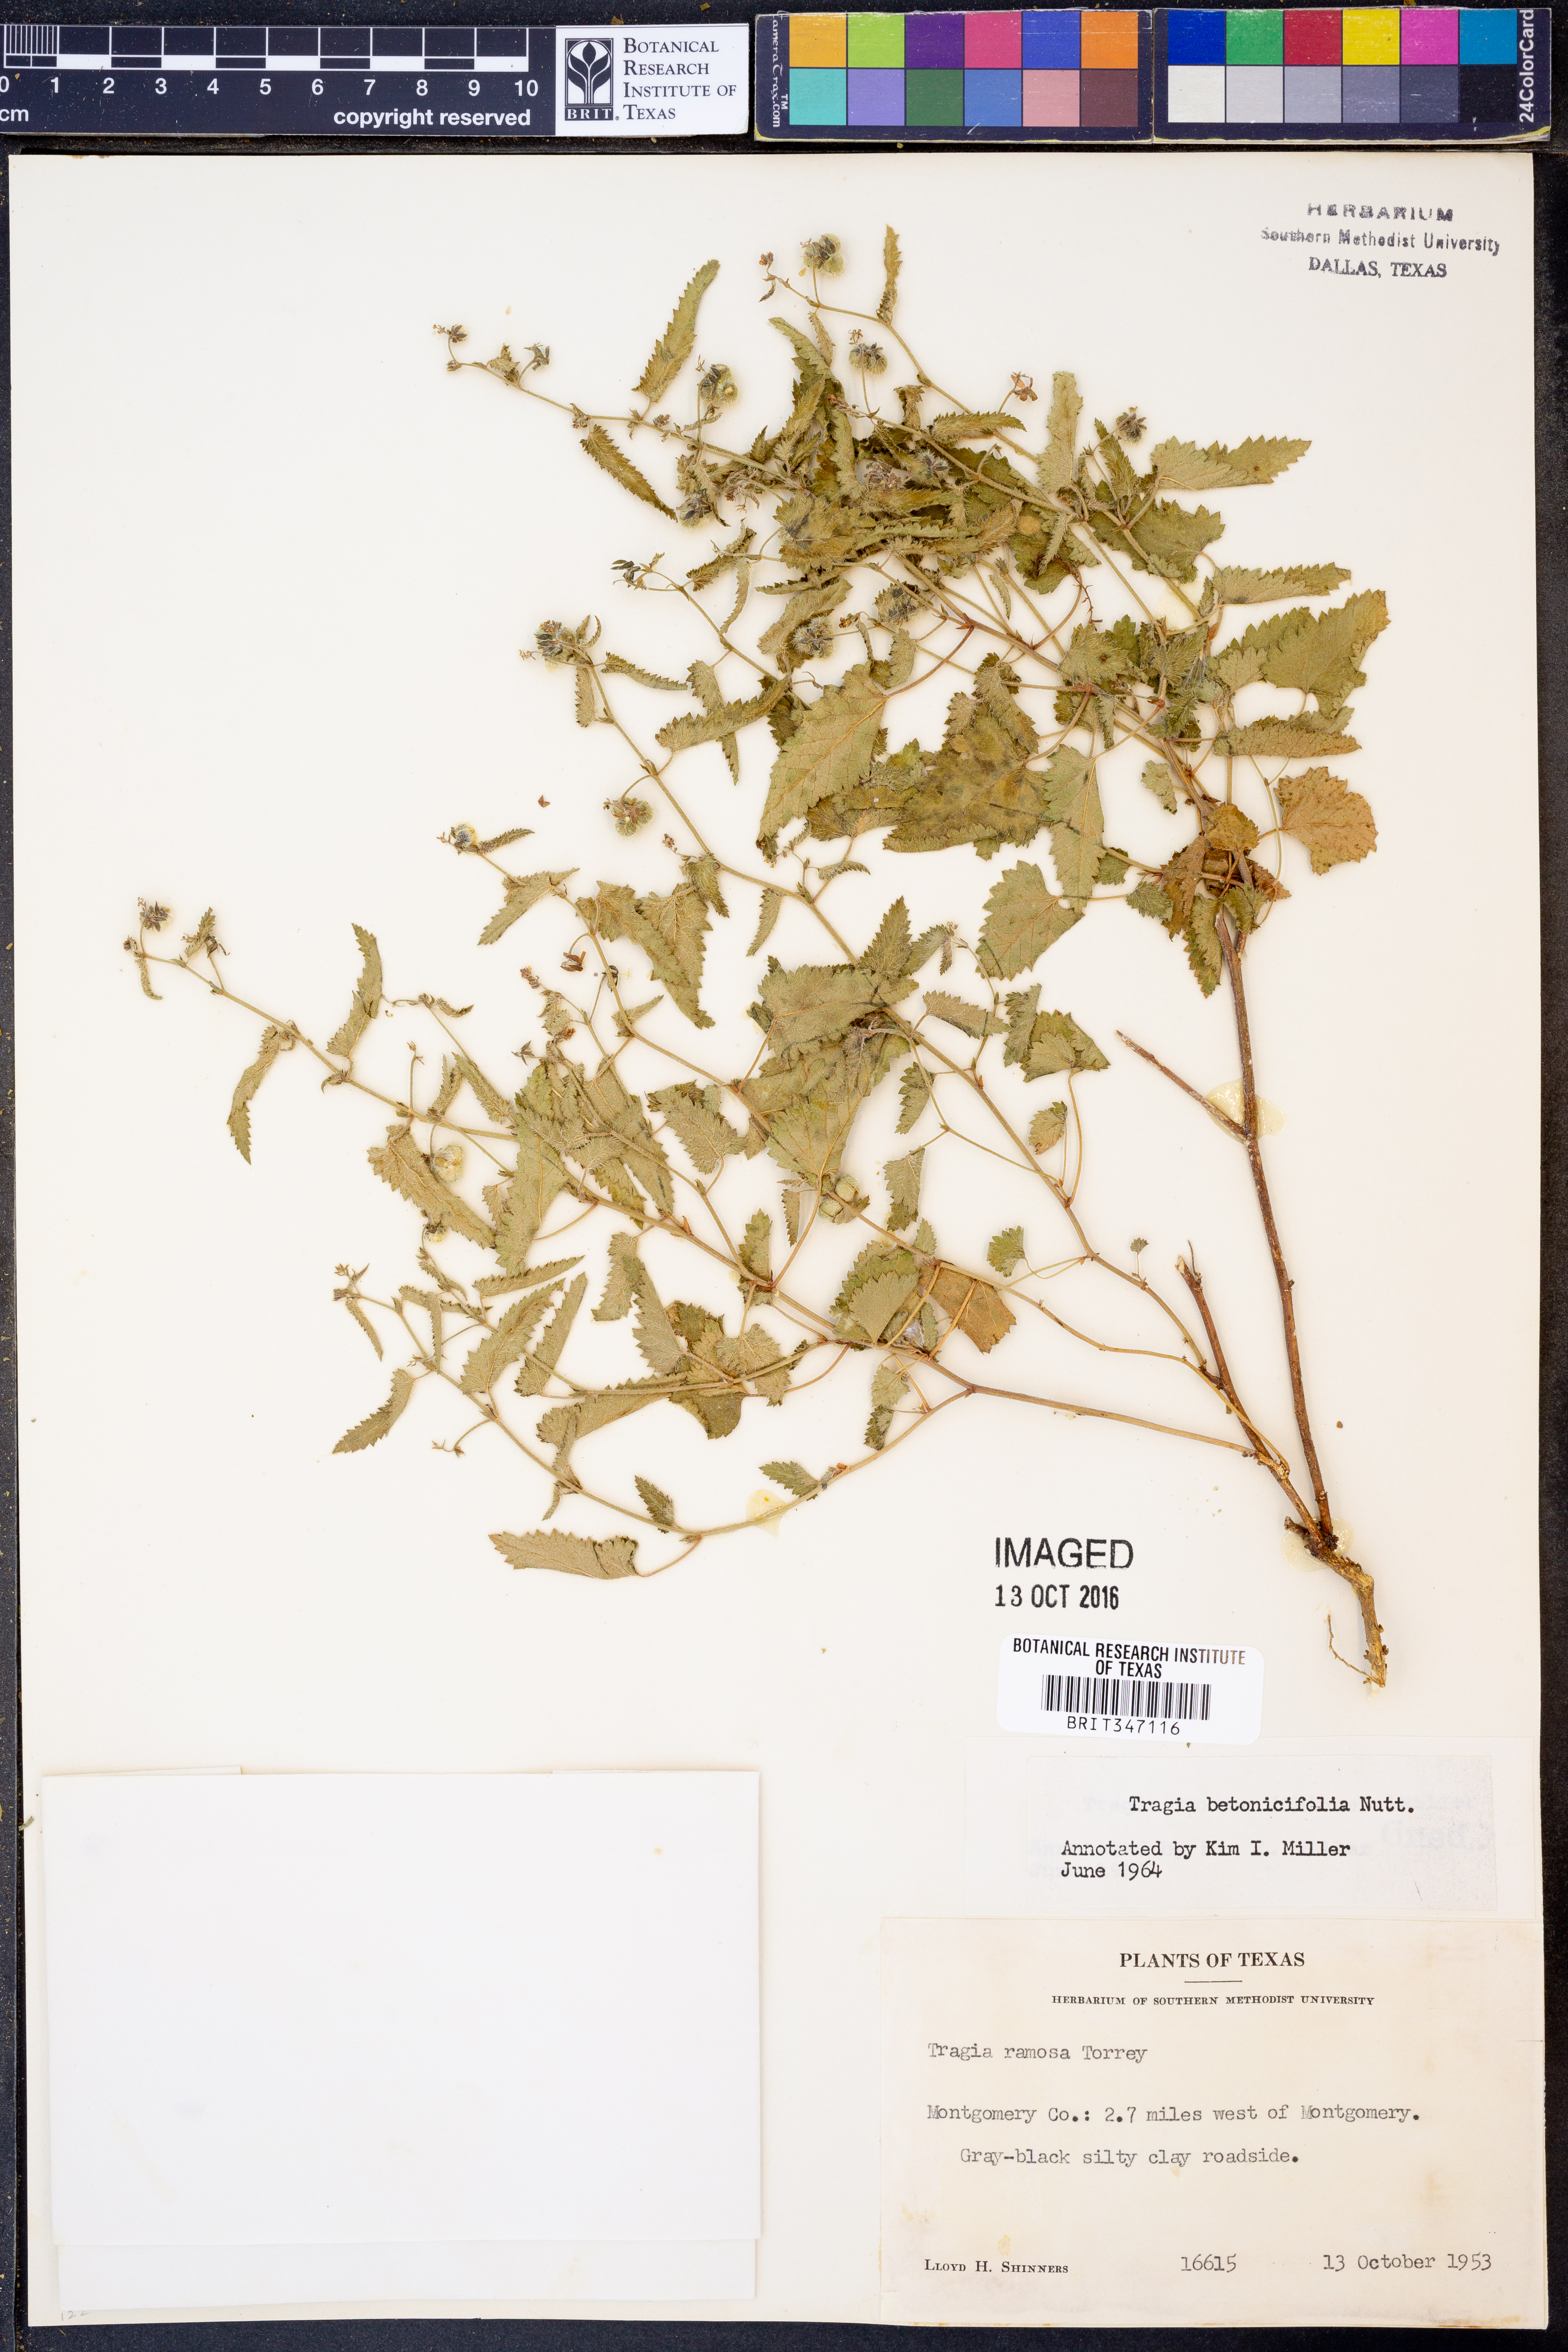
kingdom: Plantae
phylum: Tracheophyta
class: Magnoliopsida
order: Malpighiales
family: Euphorbiaceae
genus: Tragia
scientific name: Tragia betonicifolia
